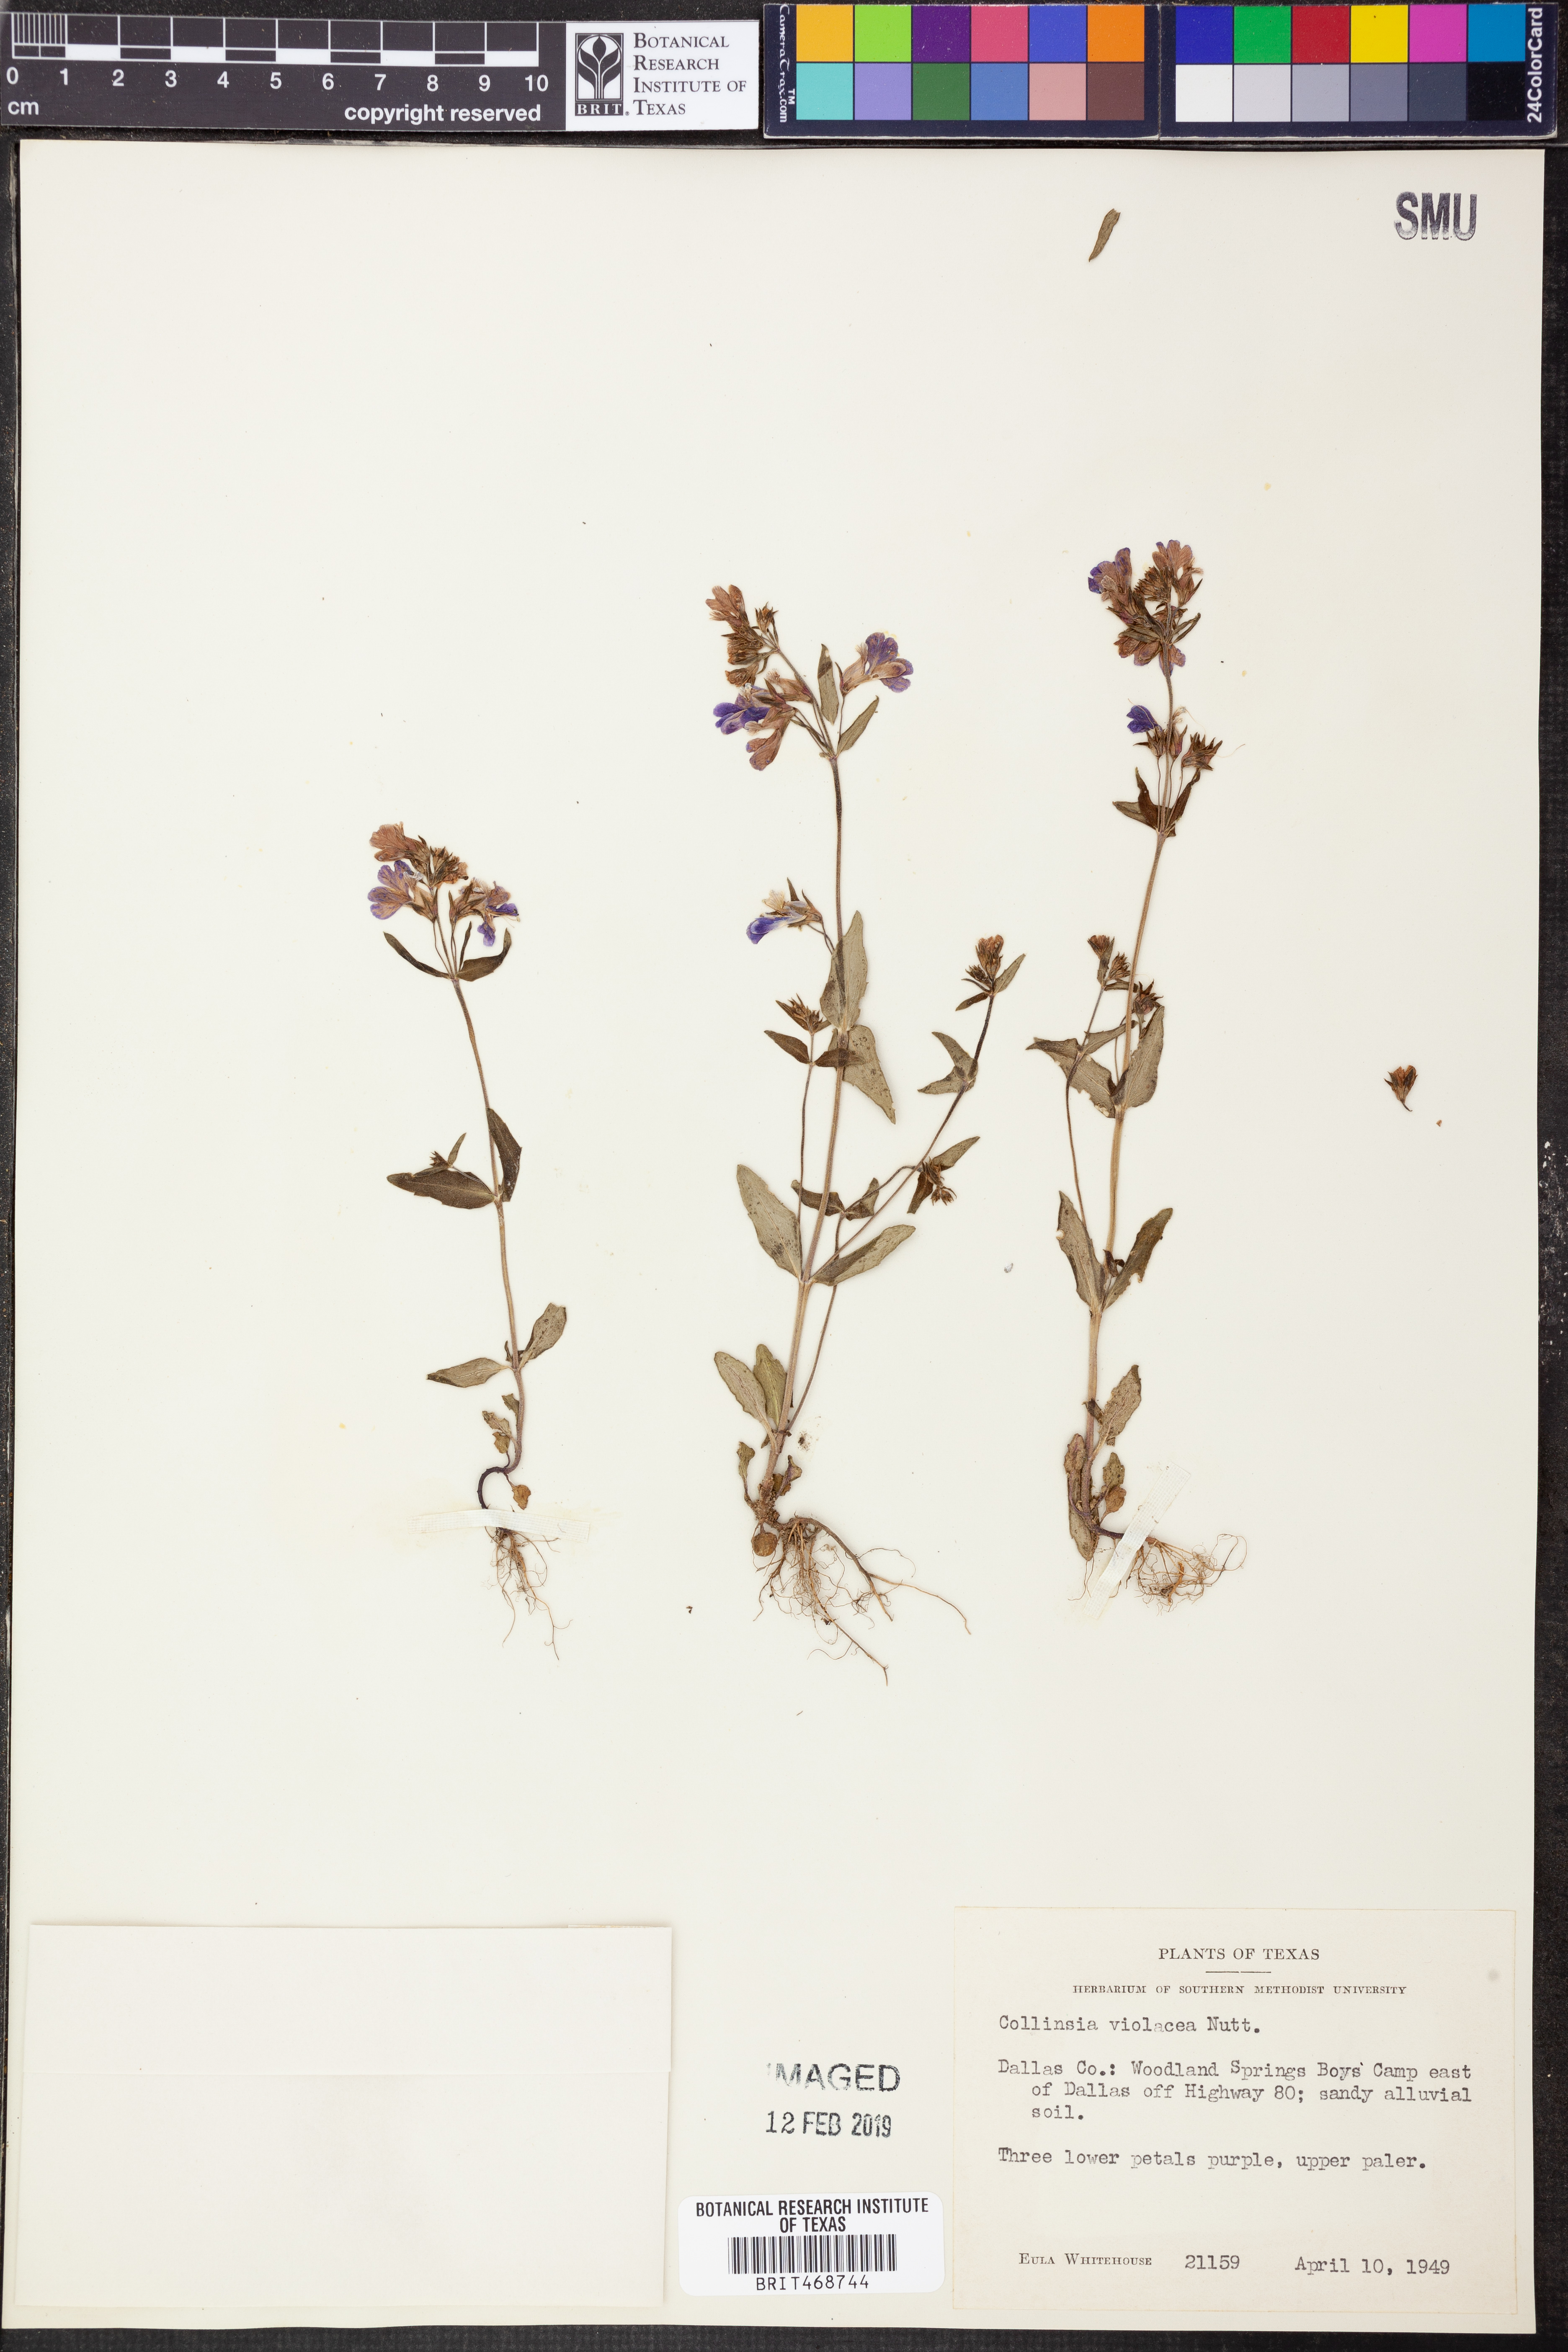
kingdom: Plantae
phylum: Tracheophyta
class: Magnoliopsida
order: Lamiales
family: Plantaginaceae
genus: Collinsia
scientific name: Collinsia violacea
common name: Violet collinsia
